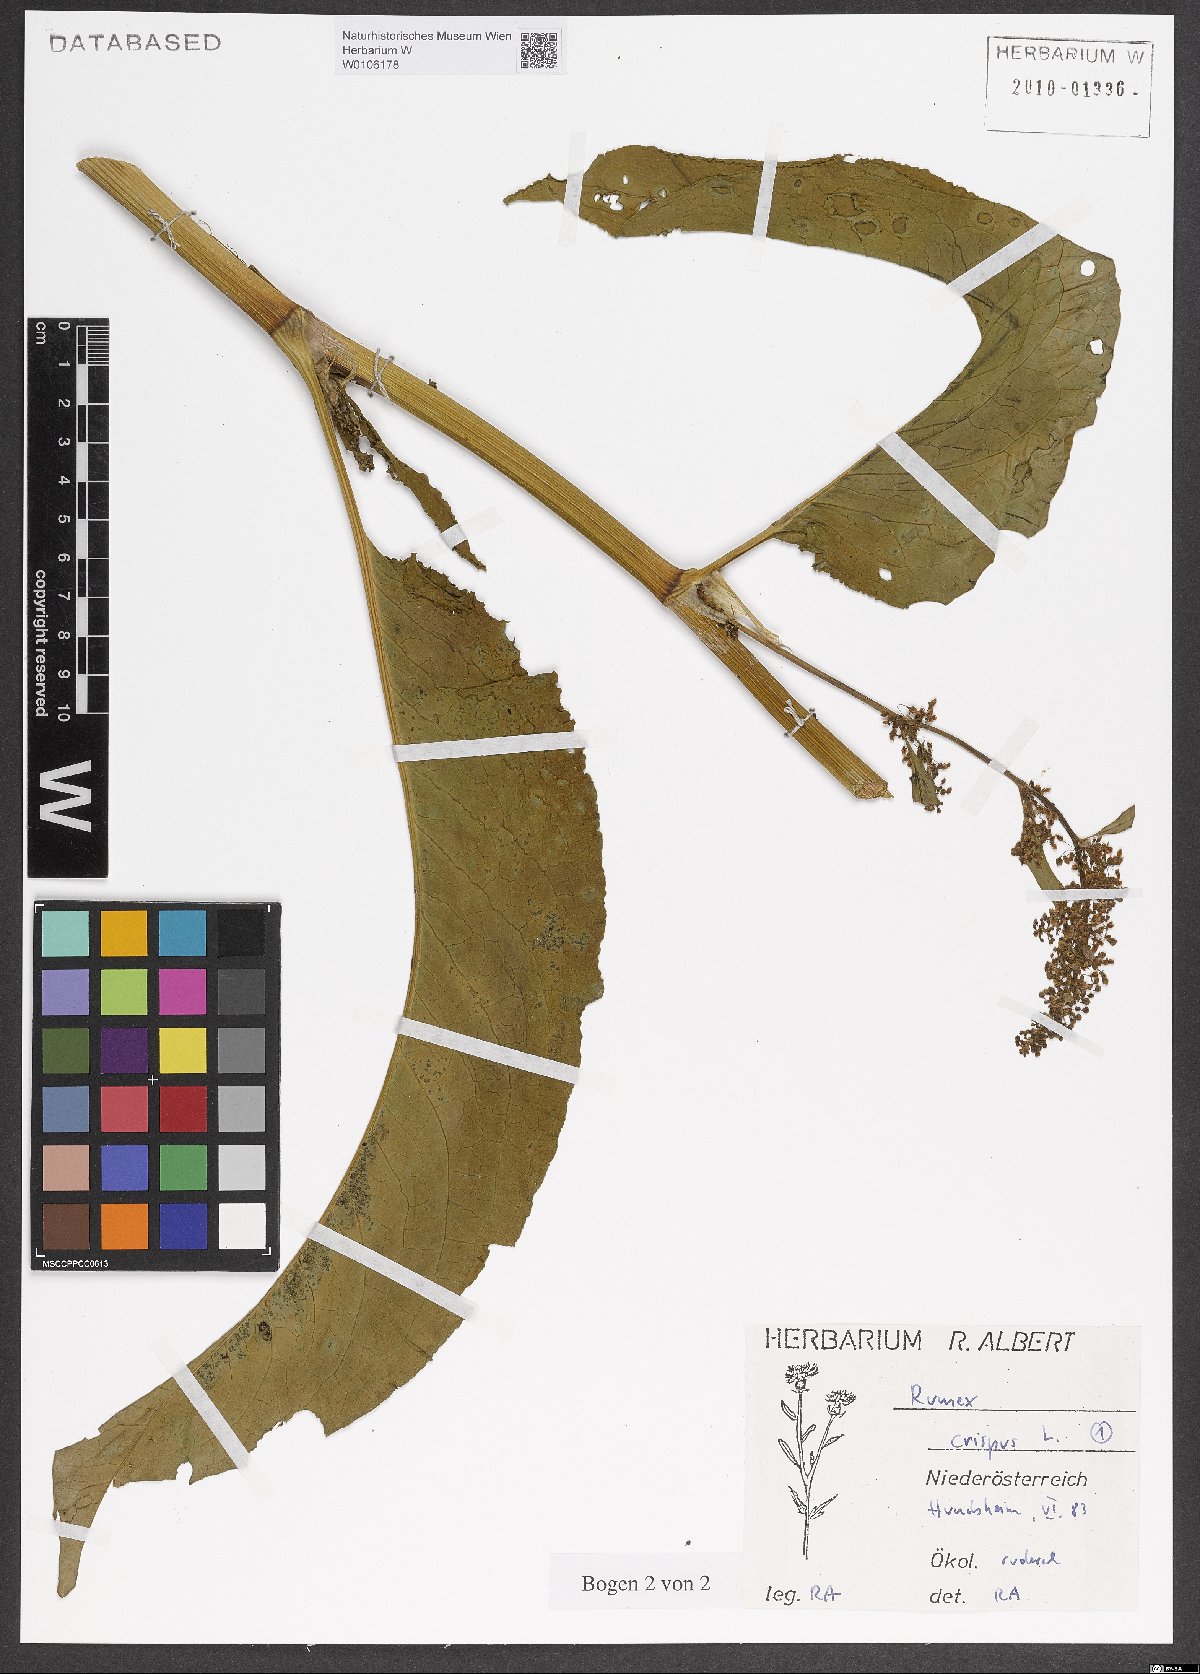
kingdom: Plantae
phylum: Tracheophyta
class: Magnoliopsida
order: Caryophyllales
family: Polygonaceae
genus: Rumex
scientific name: Rumex crispus
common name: Curled dock
